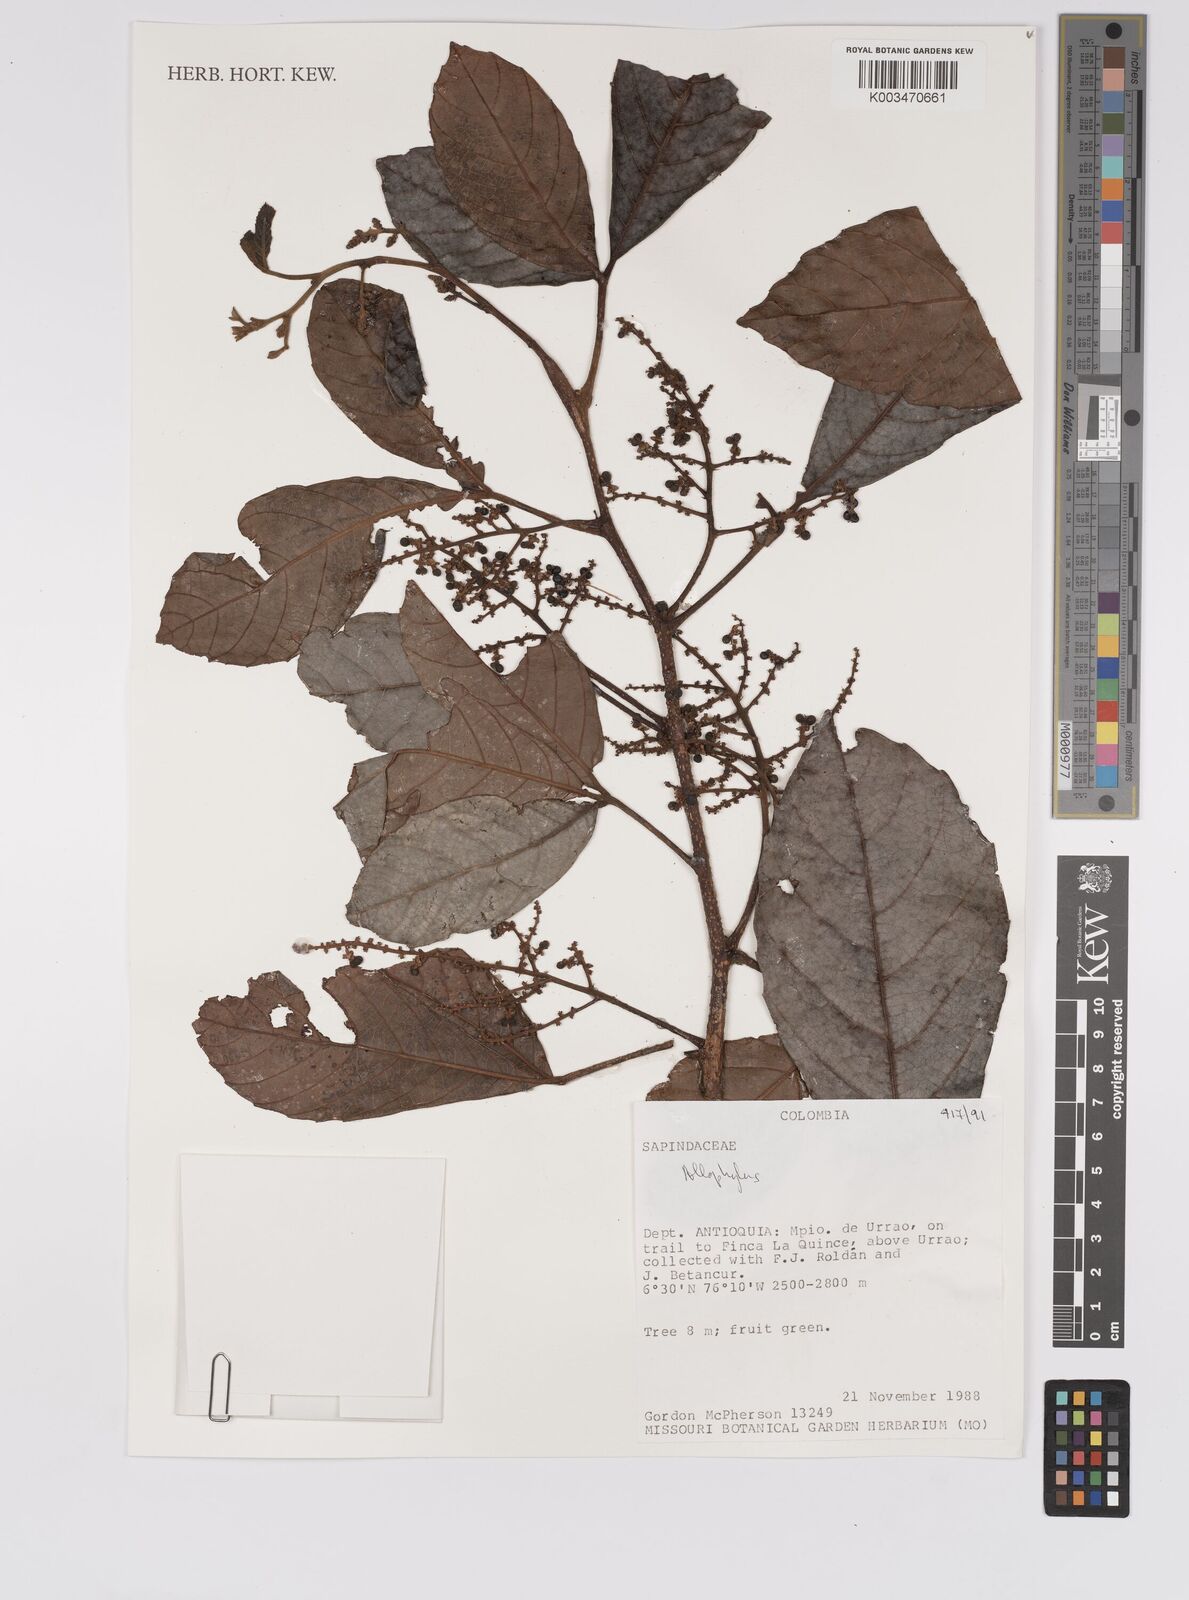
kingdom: Plantae
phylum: Tracheophyta
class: Magnoliopsida
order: Sapindales
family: Sapindaceae
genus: Allophylus
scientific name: Allophylus
